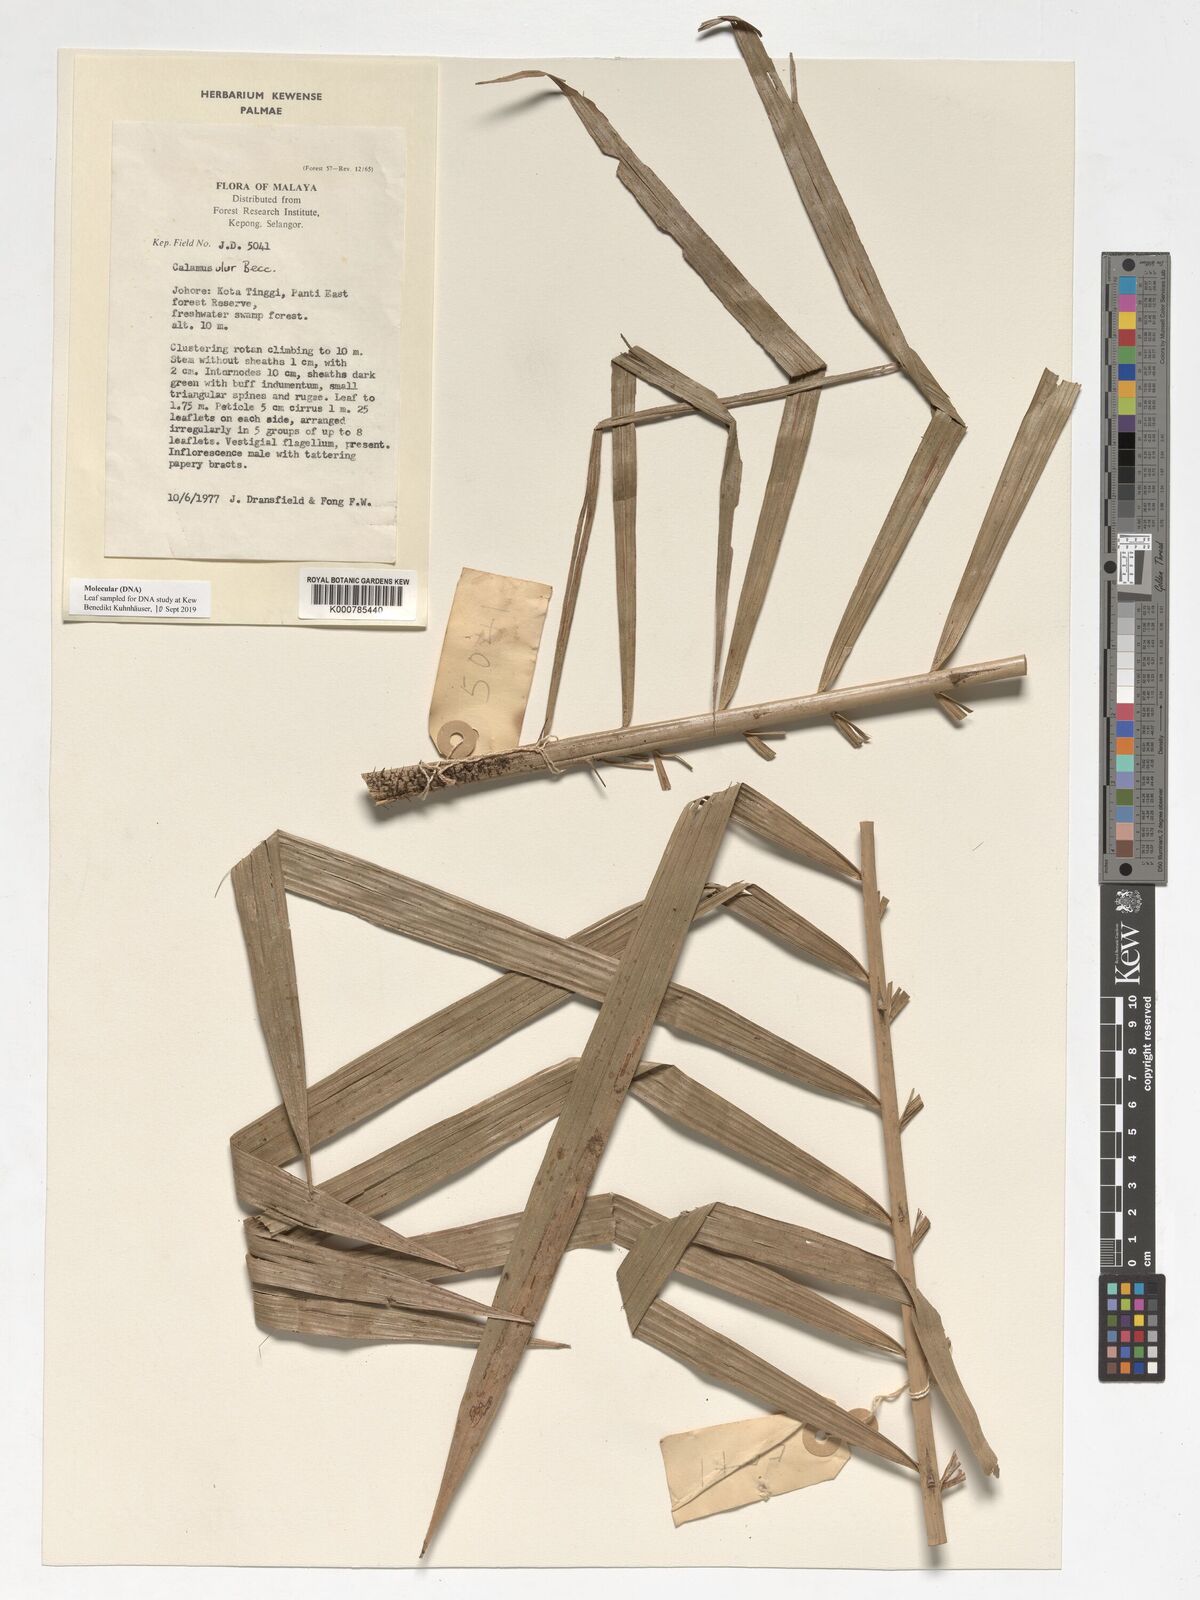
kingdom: Plantae
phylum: Tracheophyta
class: Liliopsida
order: Arecales
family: Arecaceae
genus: Calamus
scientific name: Calamus erioacanthus
